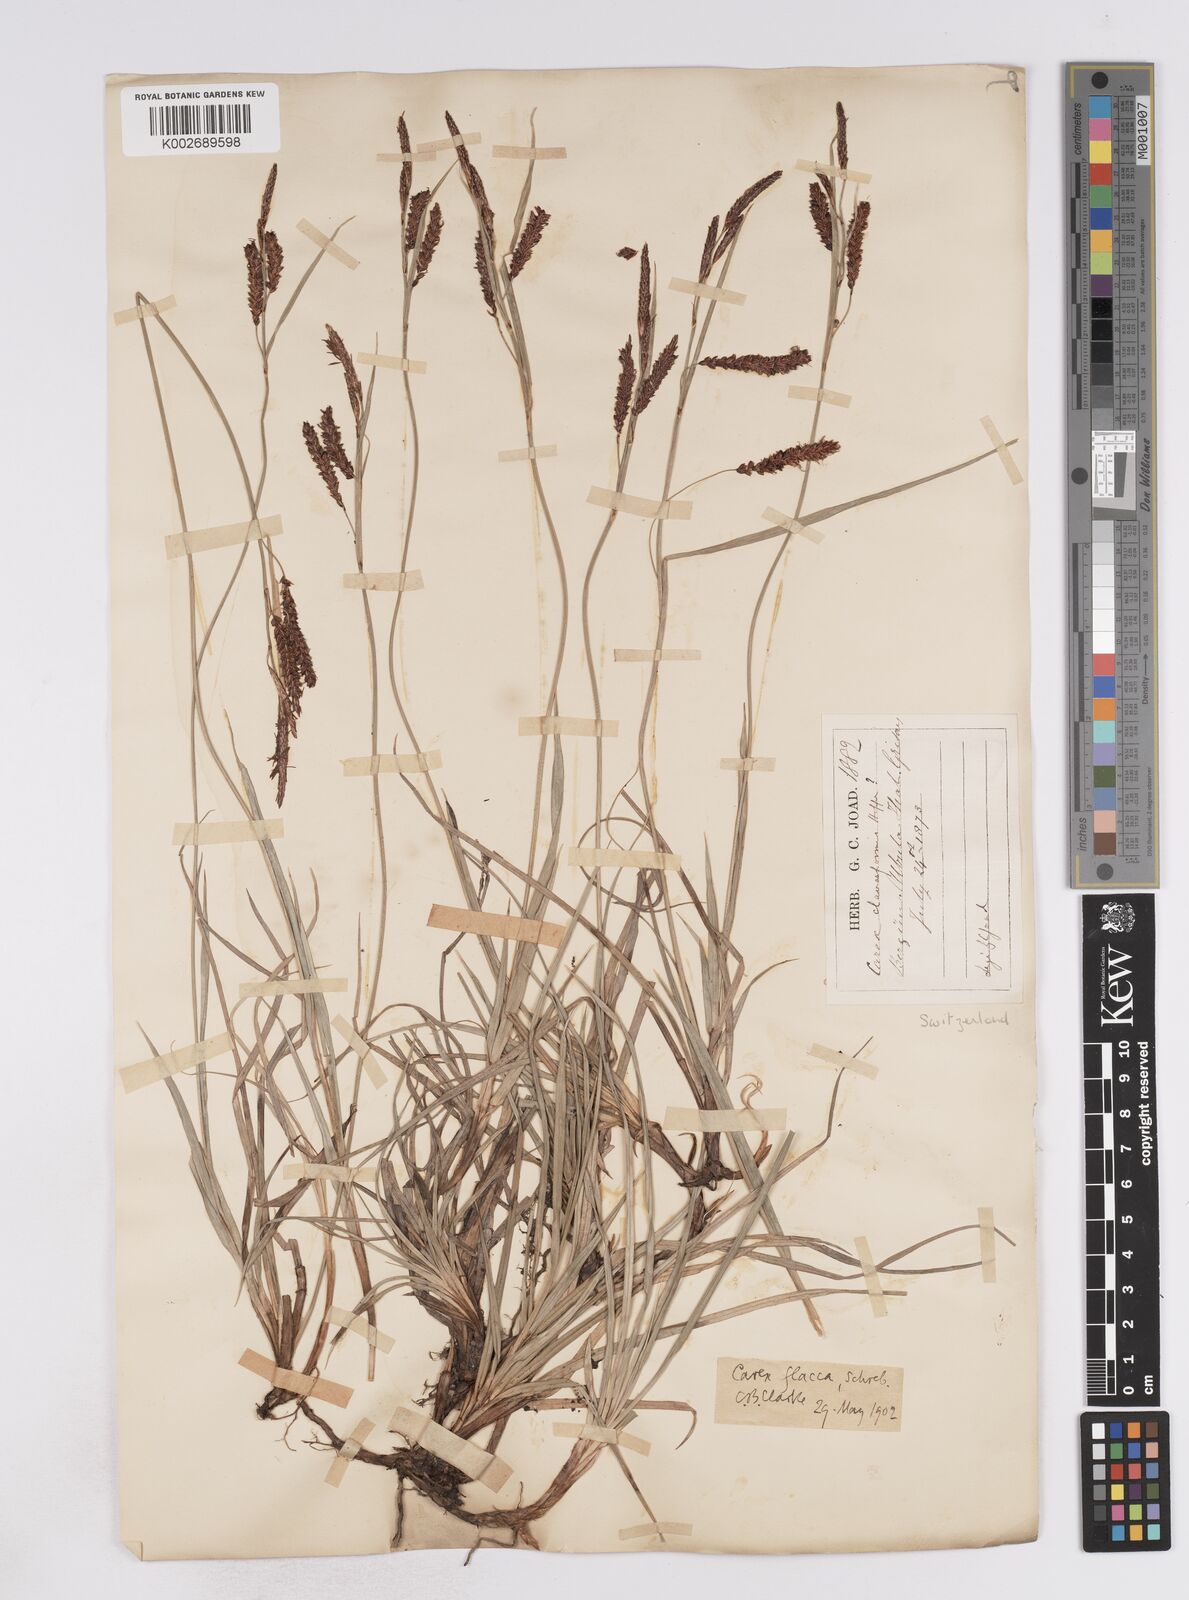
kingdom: Plantae
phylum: Tracheophyta
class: Liliopsida
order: Poales
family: Cyperaceae
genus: Carex
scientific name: Carex flacca
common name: Glaucous sedge
